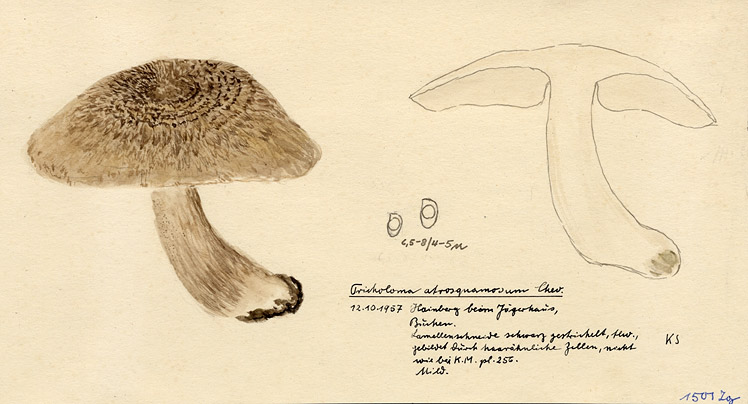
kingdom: Fungi
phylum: Basidiomycota
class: Agaricomycetes
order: Agaricales
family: Tricholomataceae
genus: Tricholoma
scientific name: Tricholoma atrosquamosum
